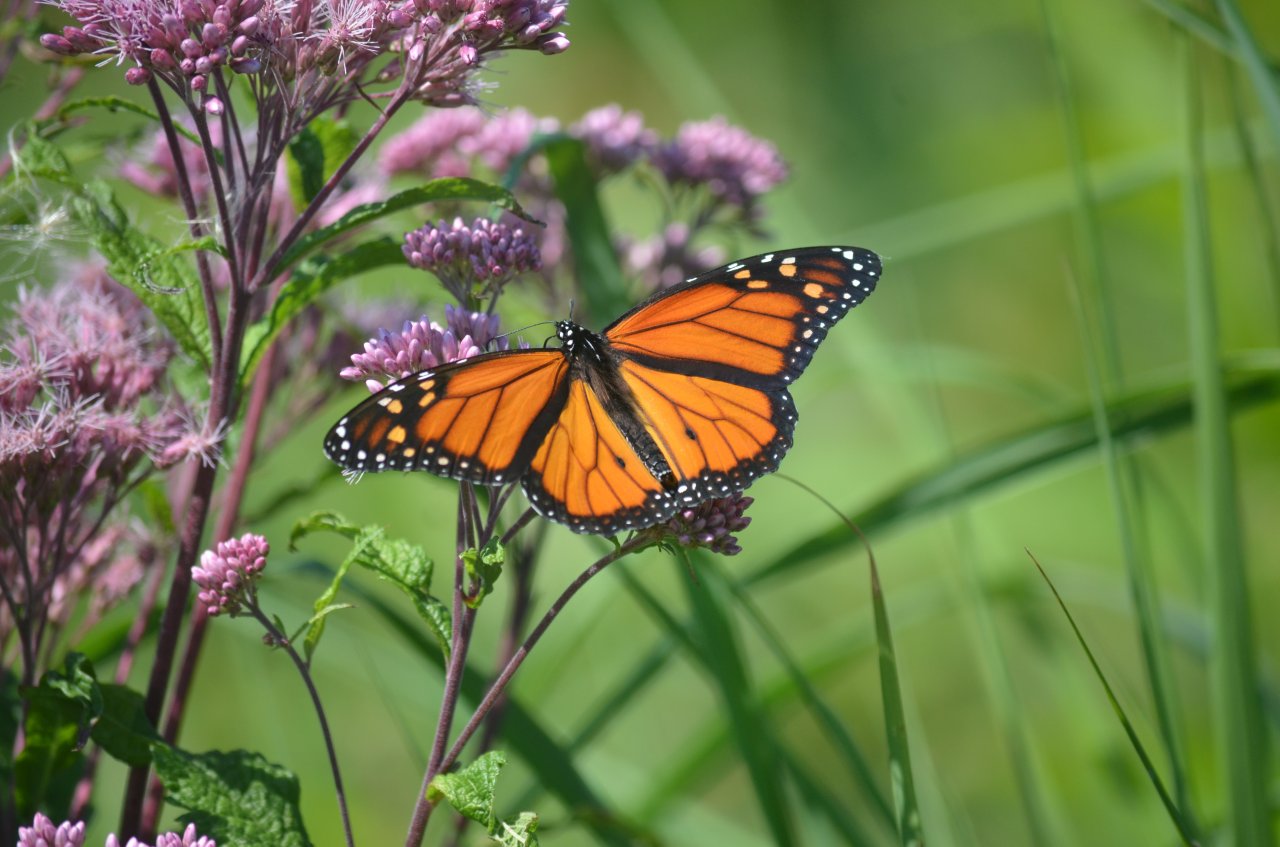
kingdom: Animalia
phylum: Arthropoda
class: Insecta
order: Lepidoptera
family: Nymphalidae
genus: Danaus
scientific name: Danaus plexippus
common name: Monarch
